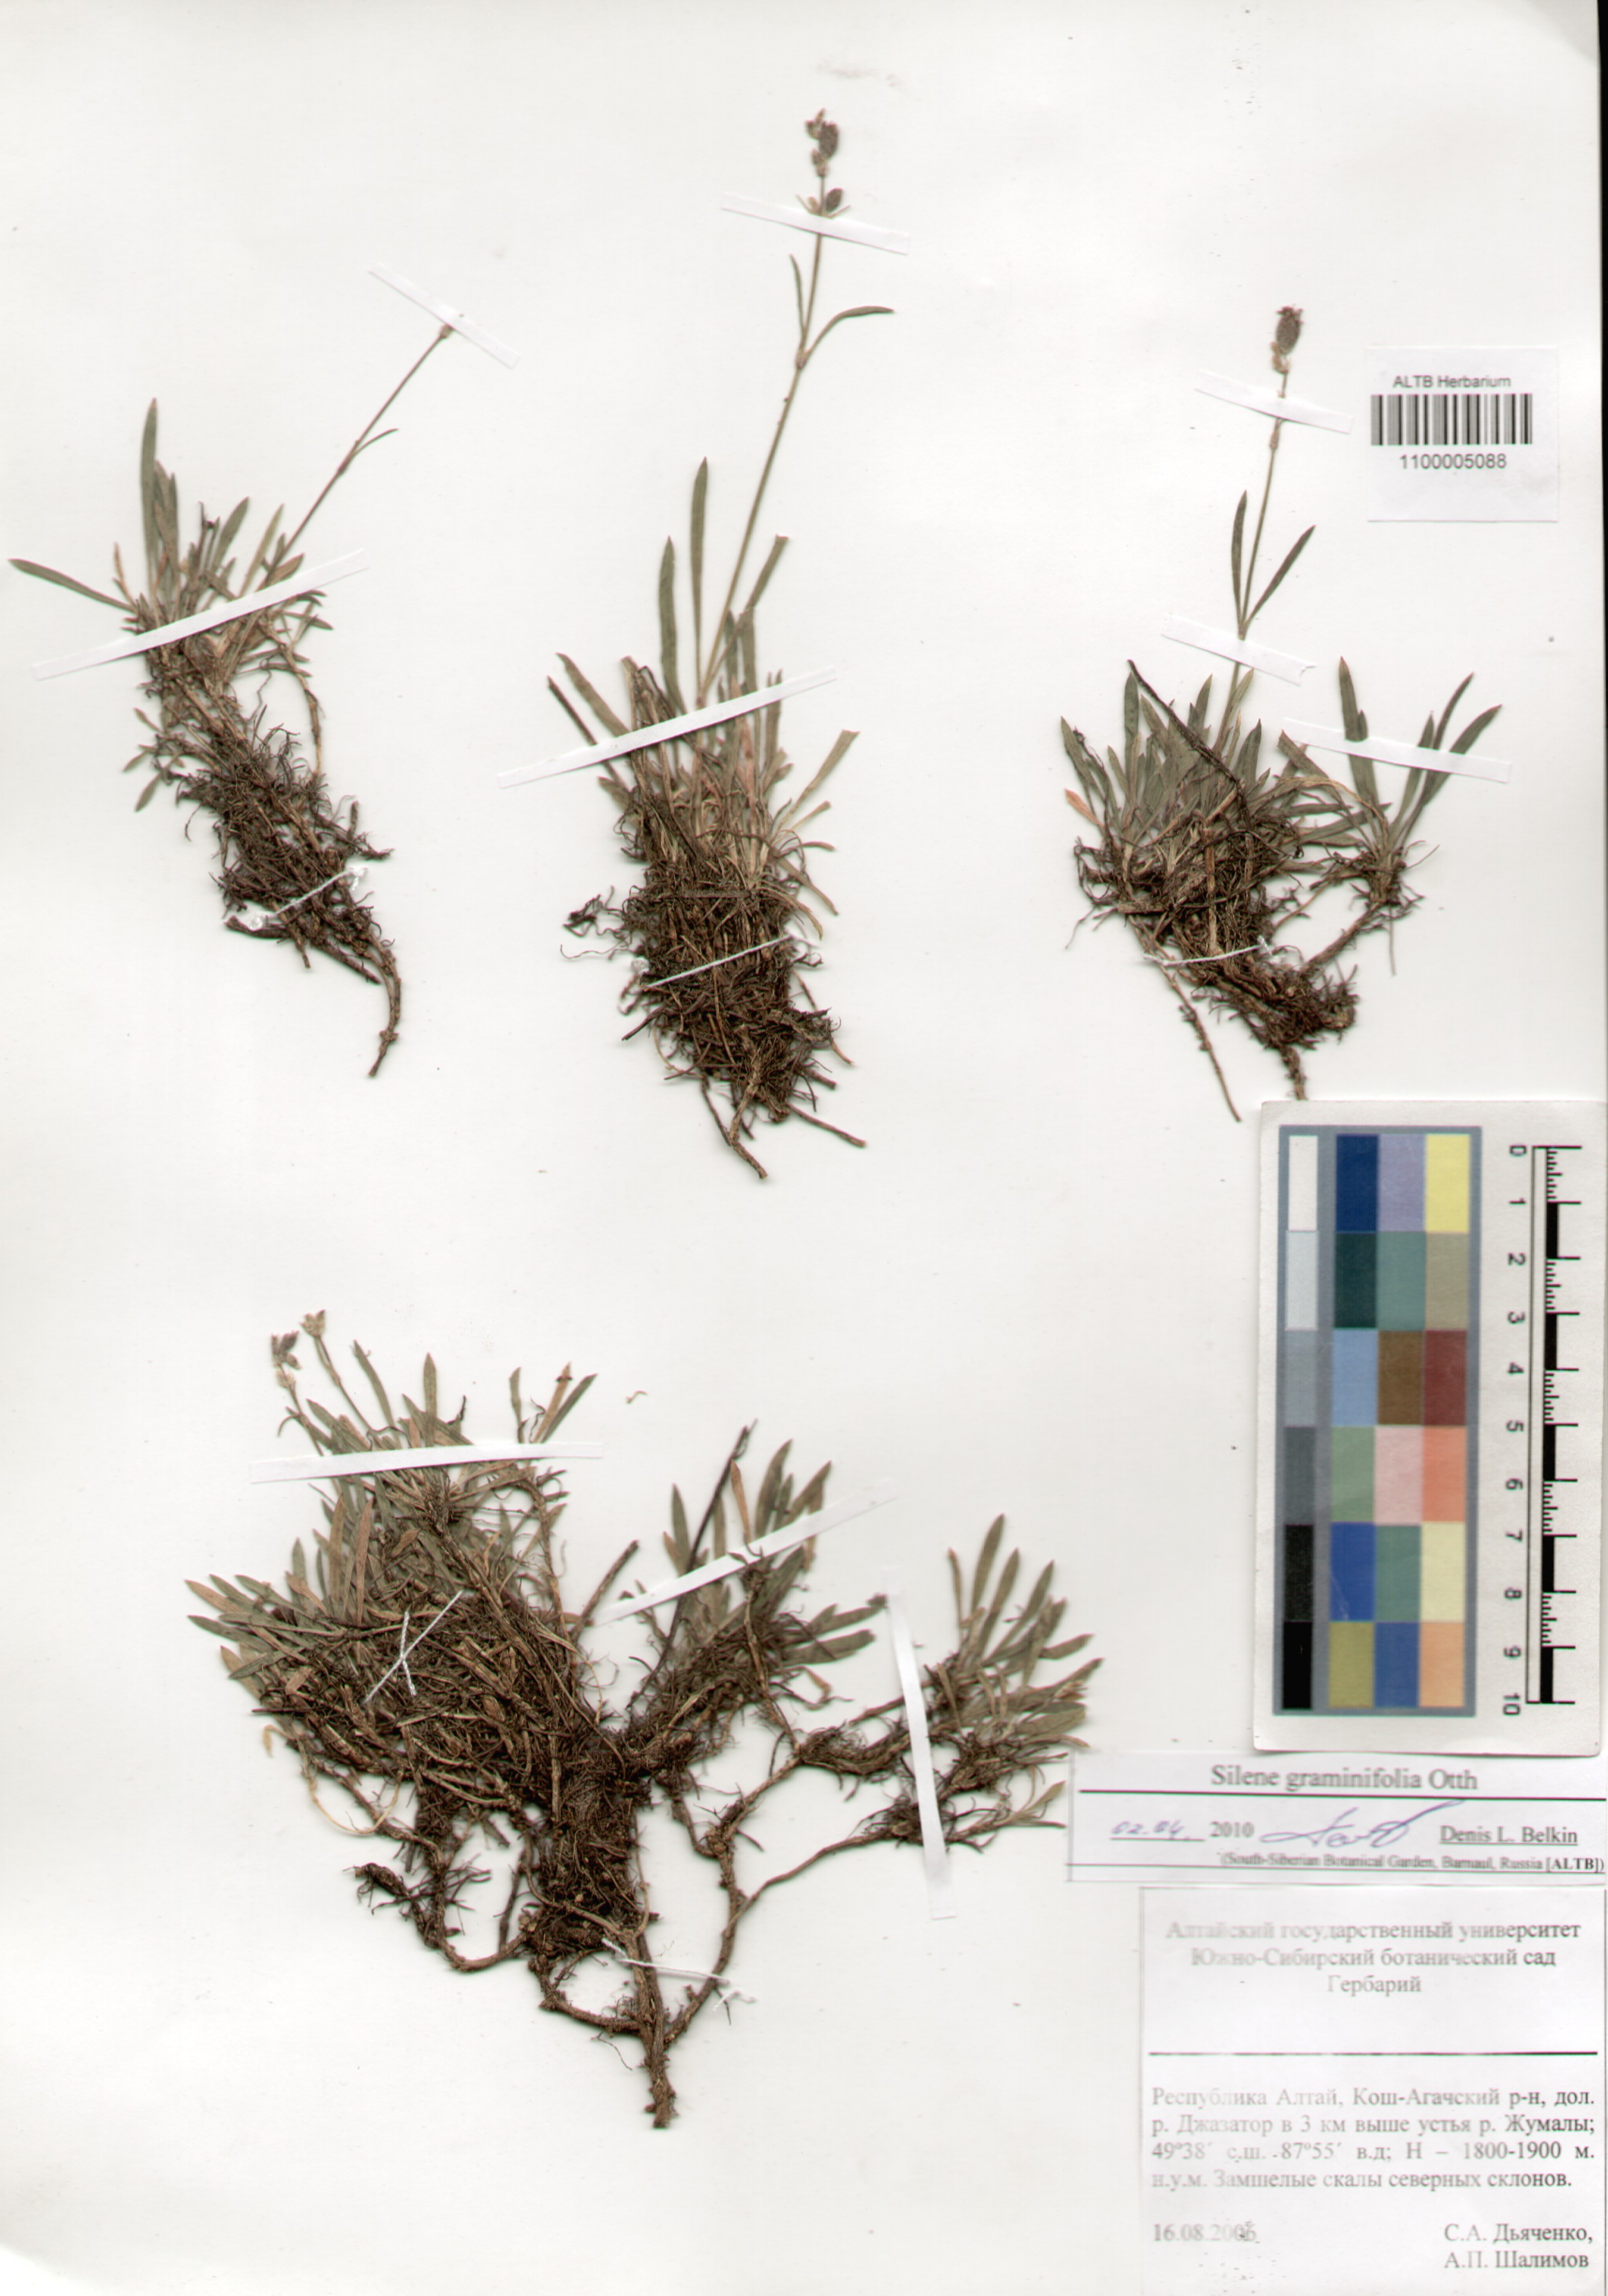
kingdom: Plantae
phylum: Tracheophyta
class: Magnoliopsida
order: Caryophyllales
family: Caryophyllaceae
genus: Silene
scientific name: Silene graminifolia
